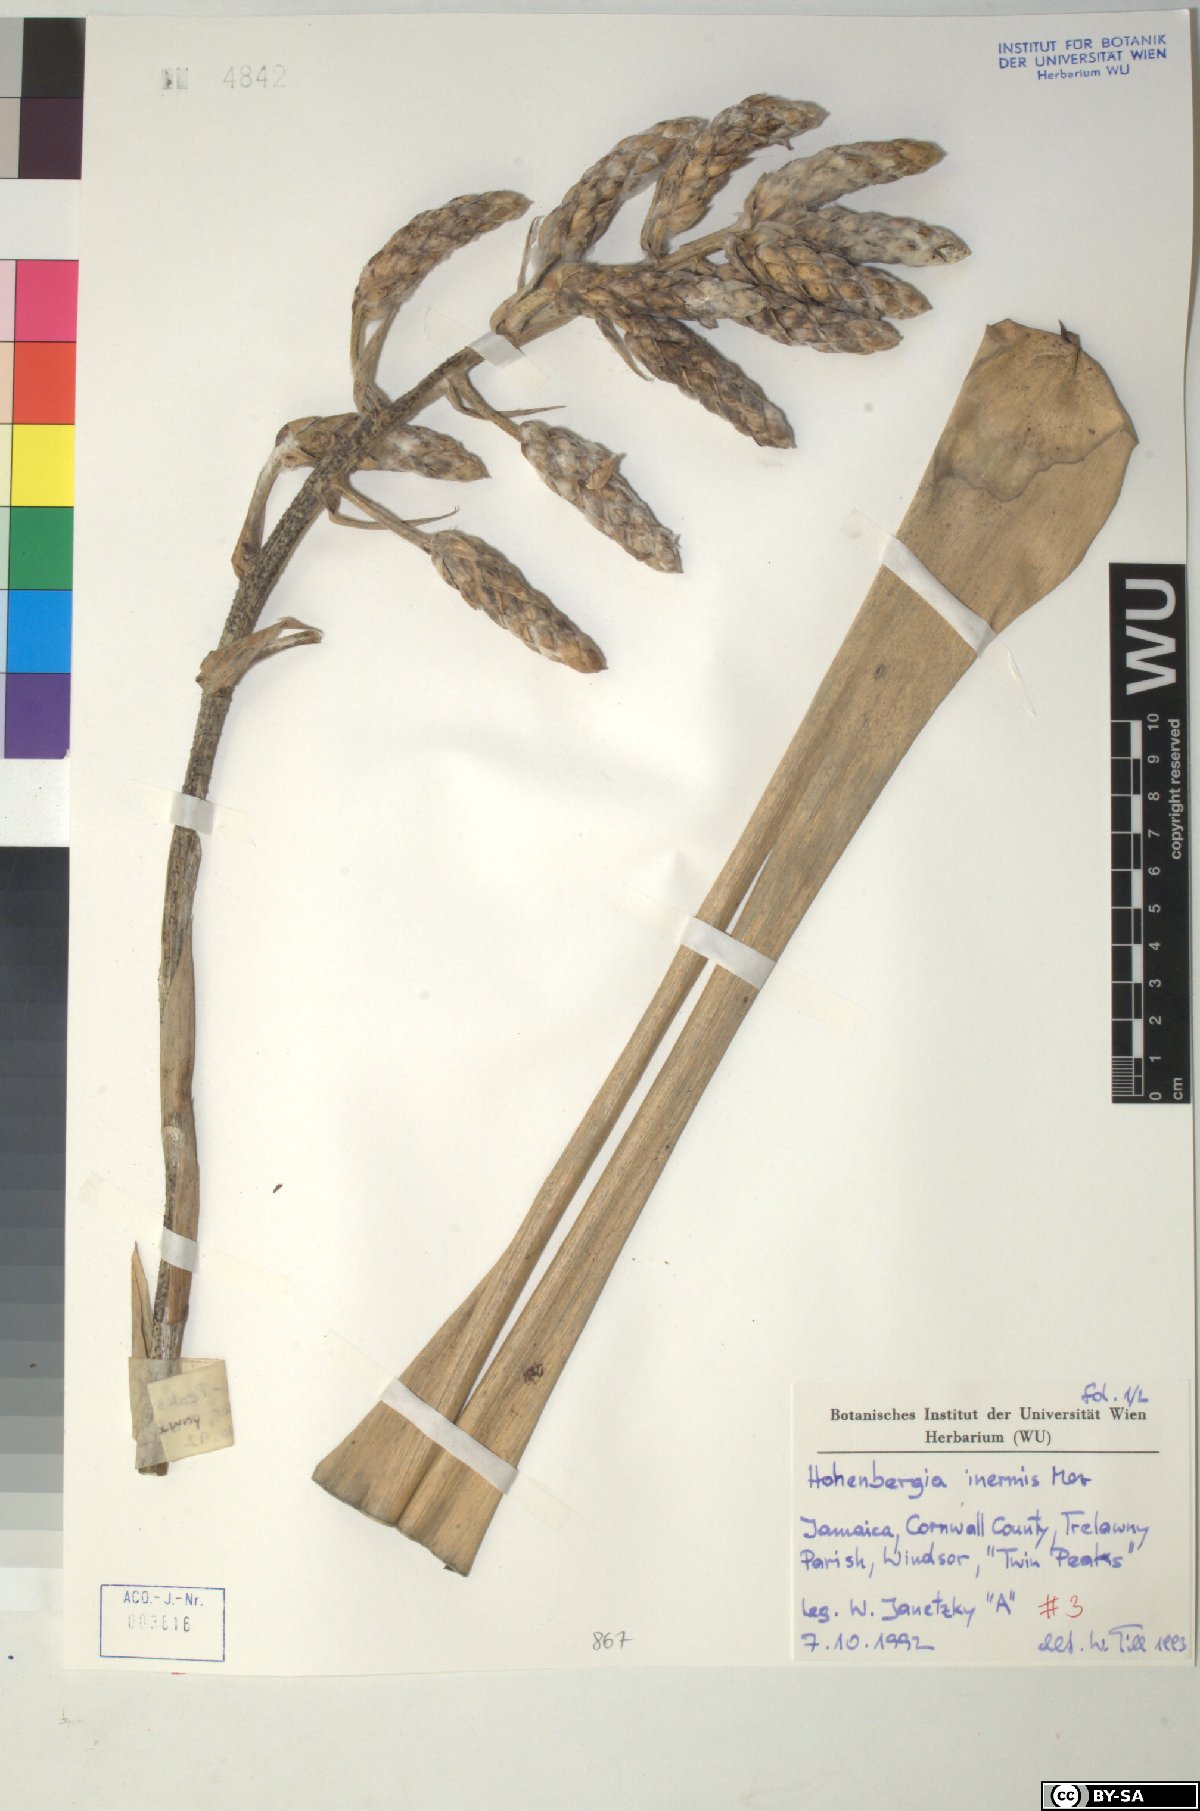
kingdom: Plantae
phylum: Tracheophyta
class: Liliopsida
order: Poales
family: Bromeliaceae
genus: Wittmackia
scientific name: Wittmackia inermis
